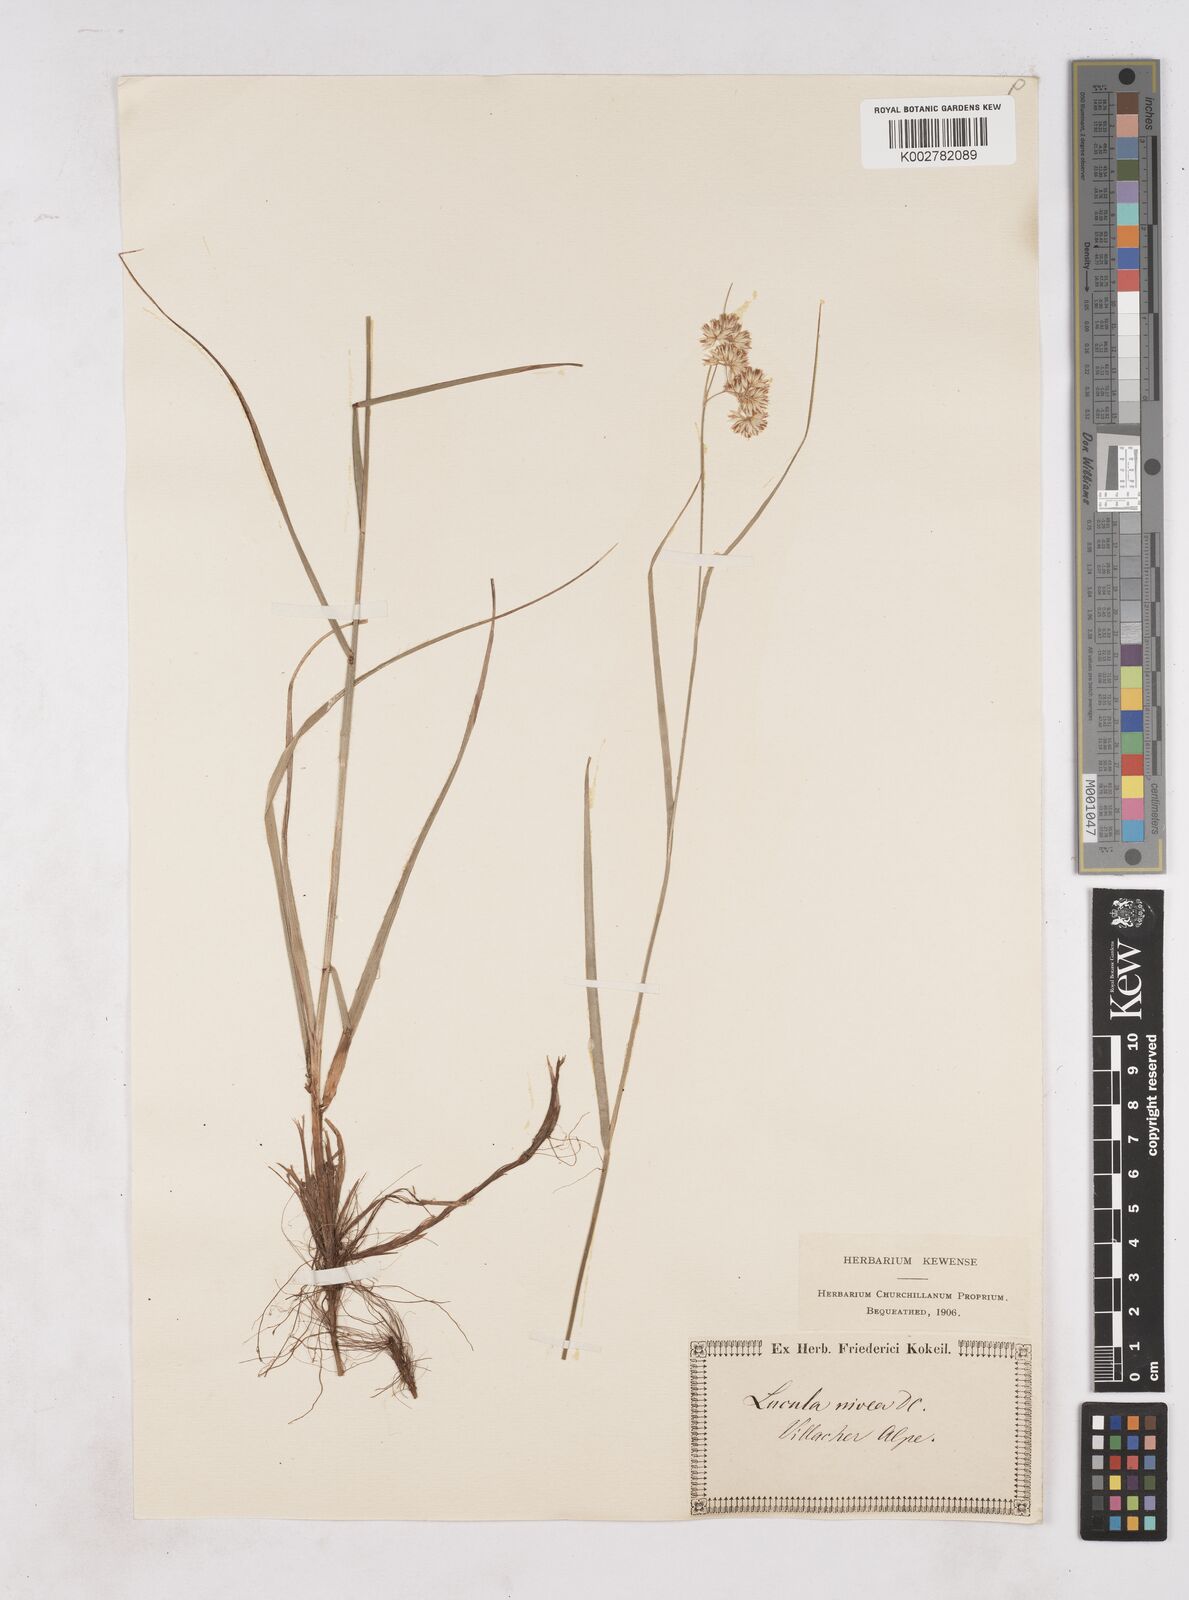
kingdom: Plantae
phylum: Tracheophyta
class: Liliopsida
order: Poales
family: Juncaceae
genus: Luzula
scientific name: Luzula nivea
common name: Snow-white wood-rush
